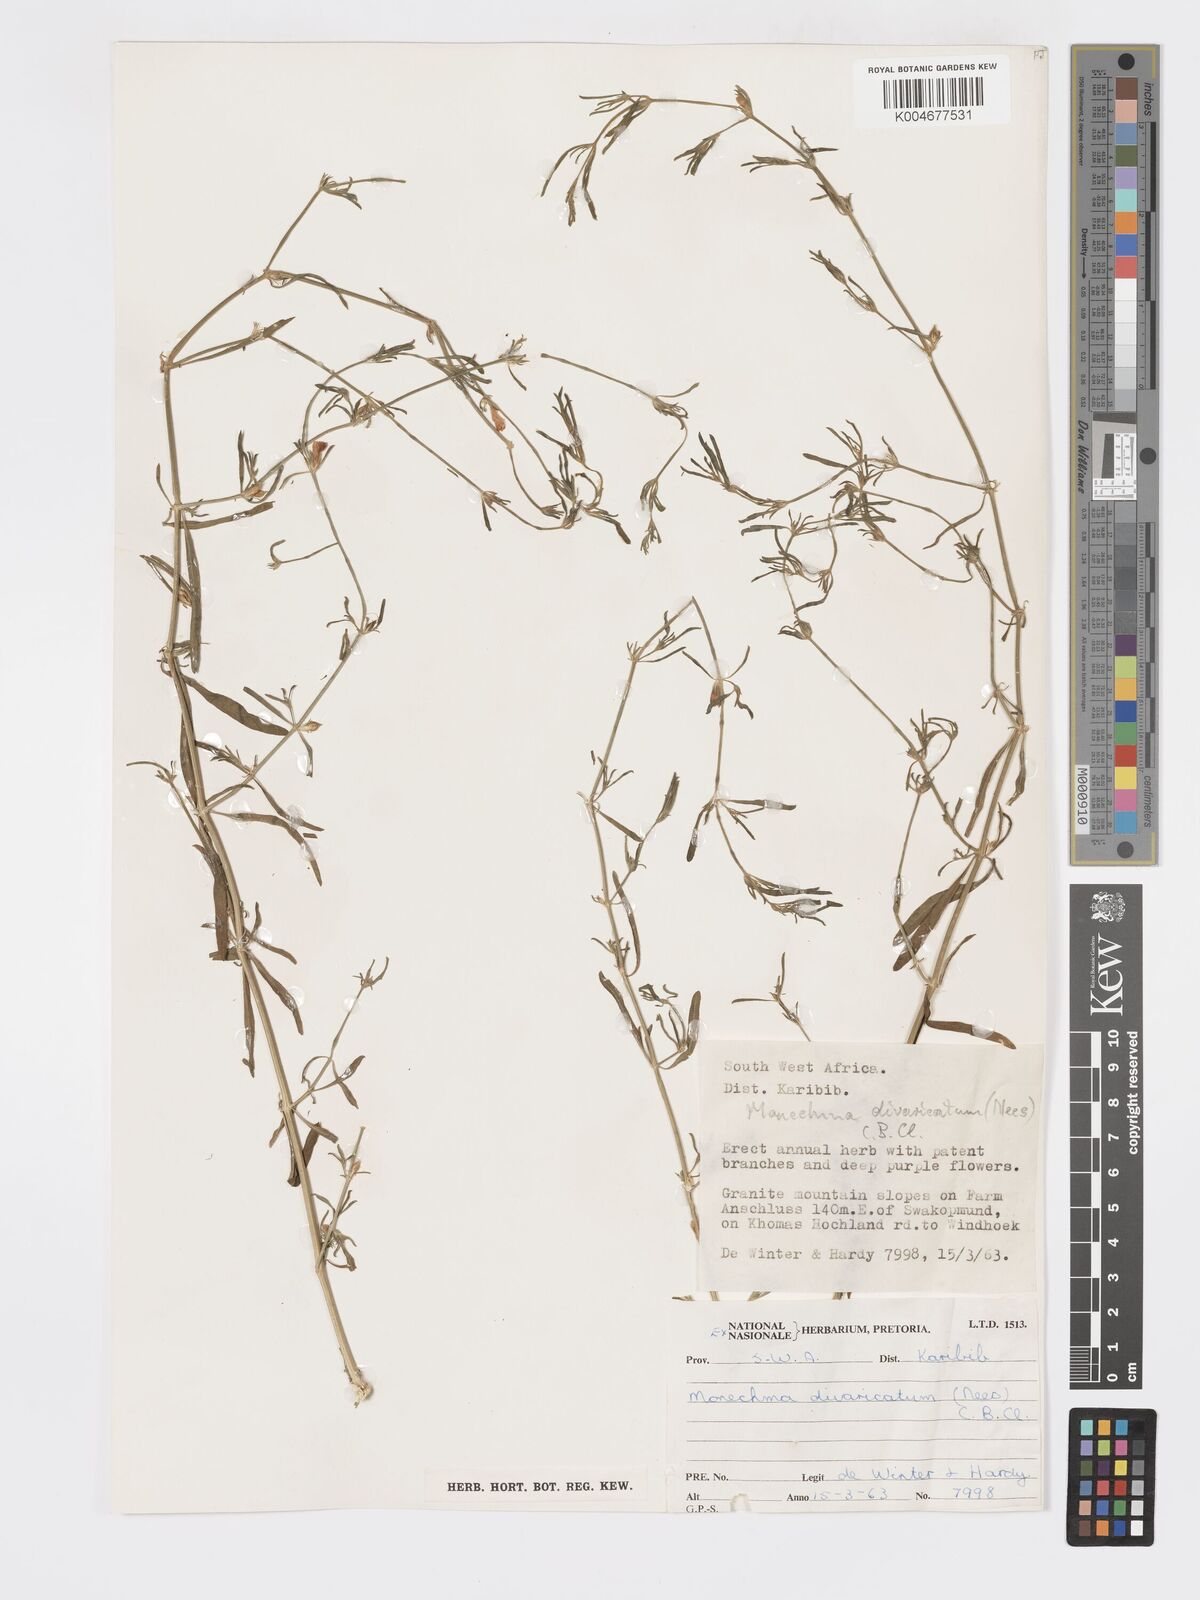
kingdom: Plantae
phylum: Tracheophyta
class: Magnoliopsida
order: Lamiales
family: Acanthaceae
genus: Pogonospermum
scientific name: Pogonospermum
